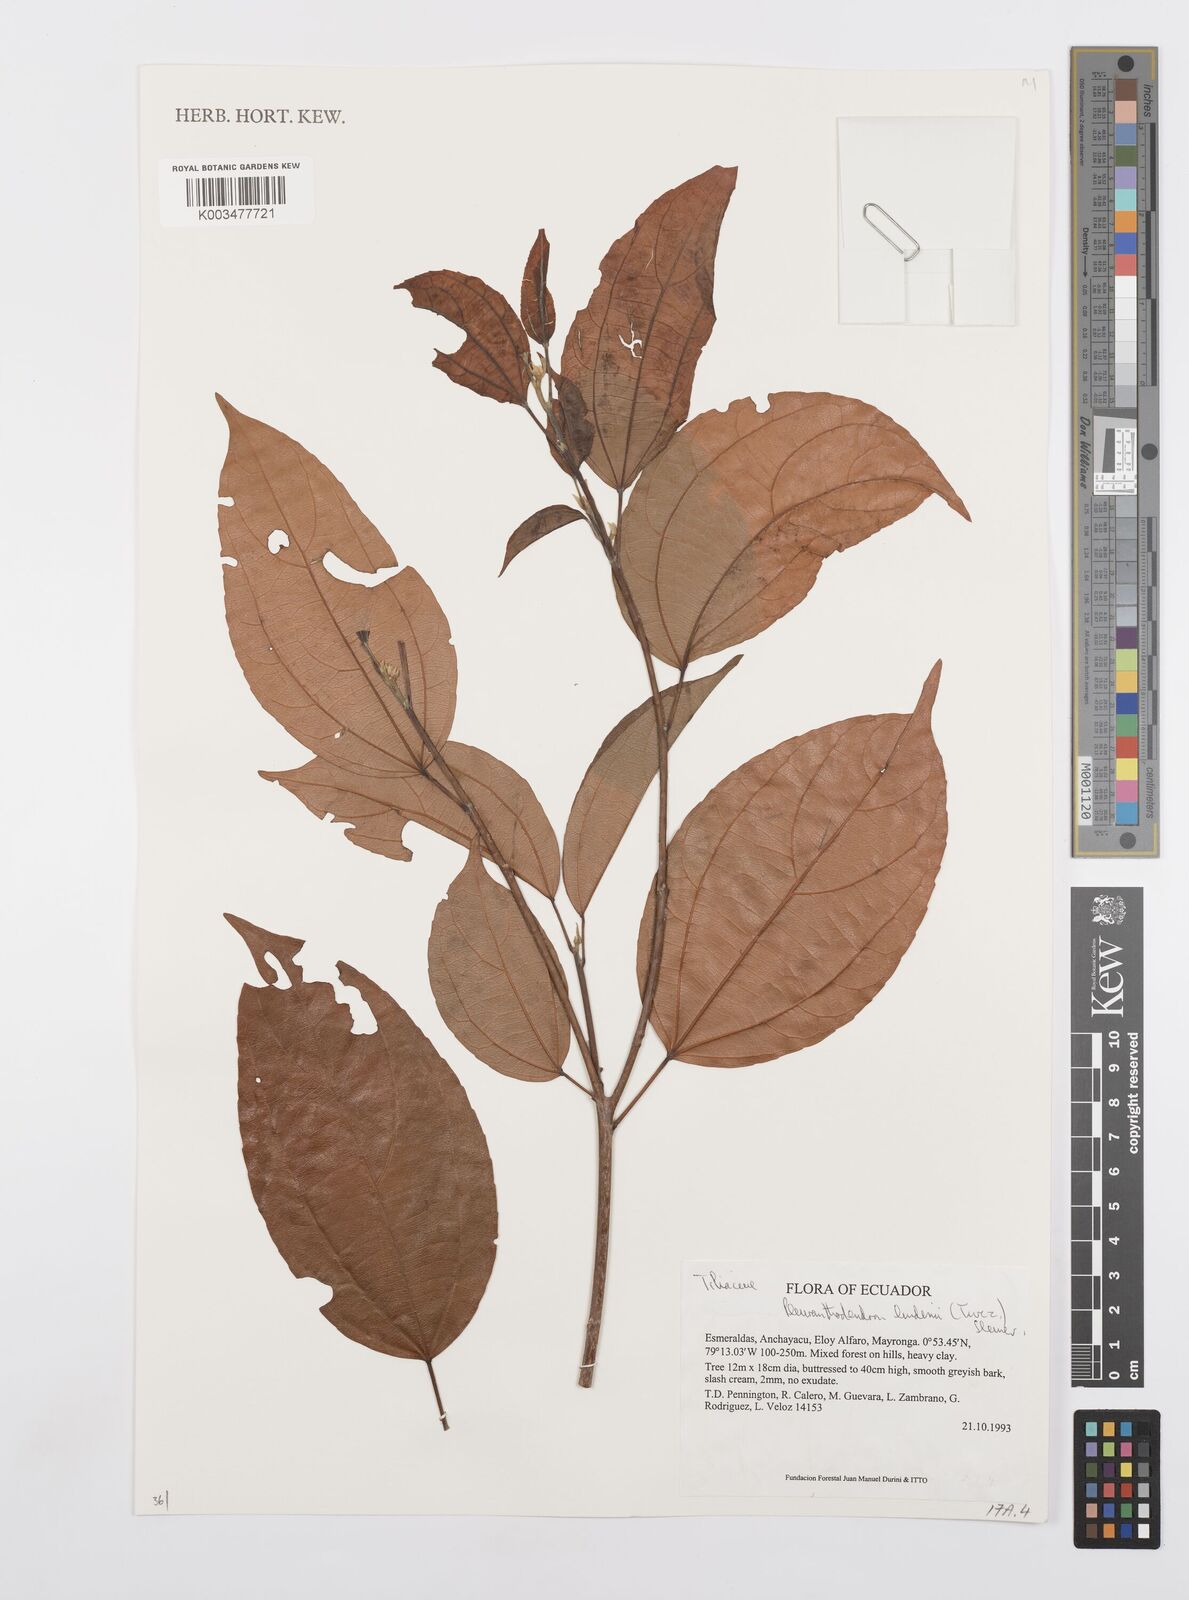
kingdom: Plantae
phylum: Tracheophyta
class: Magnoliopsida
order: Malpighiales
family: Salicaceae
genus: Pleuranthodendron
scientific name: Pleuranthodendron lindenii
